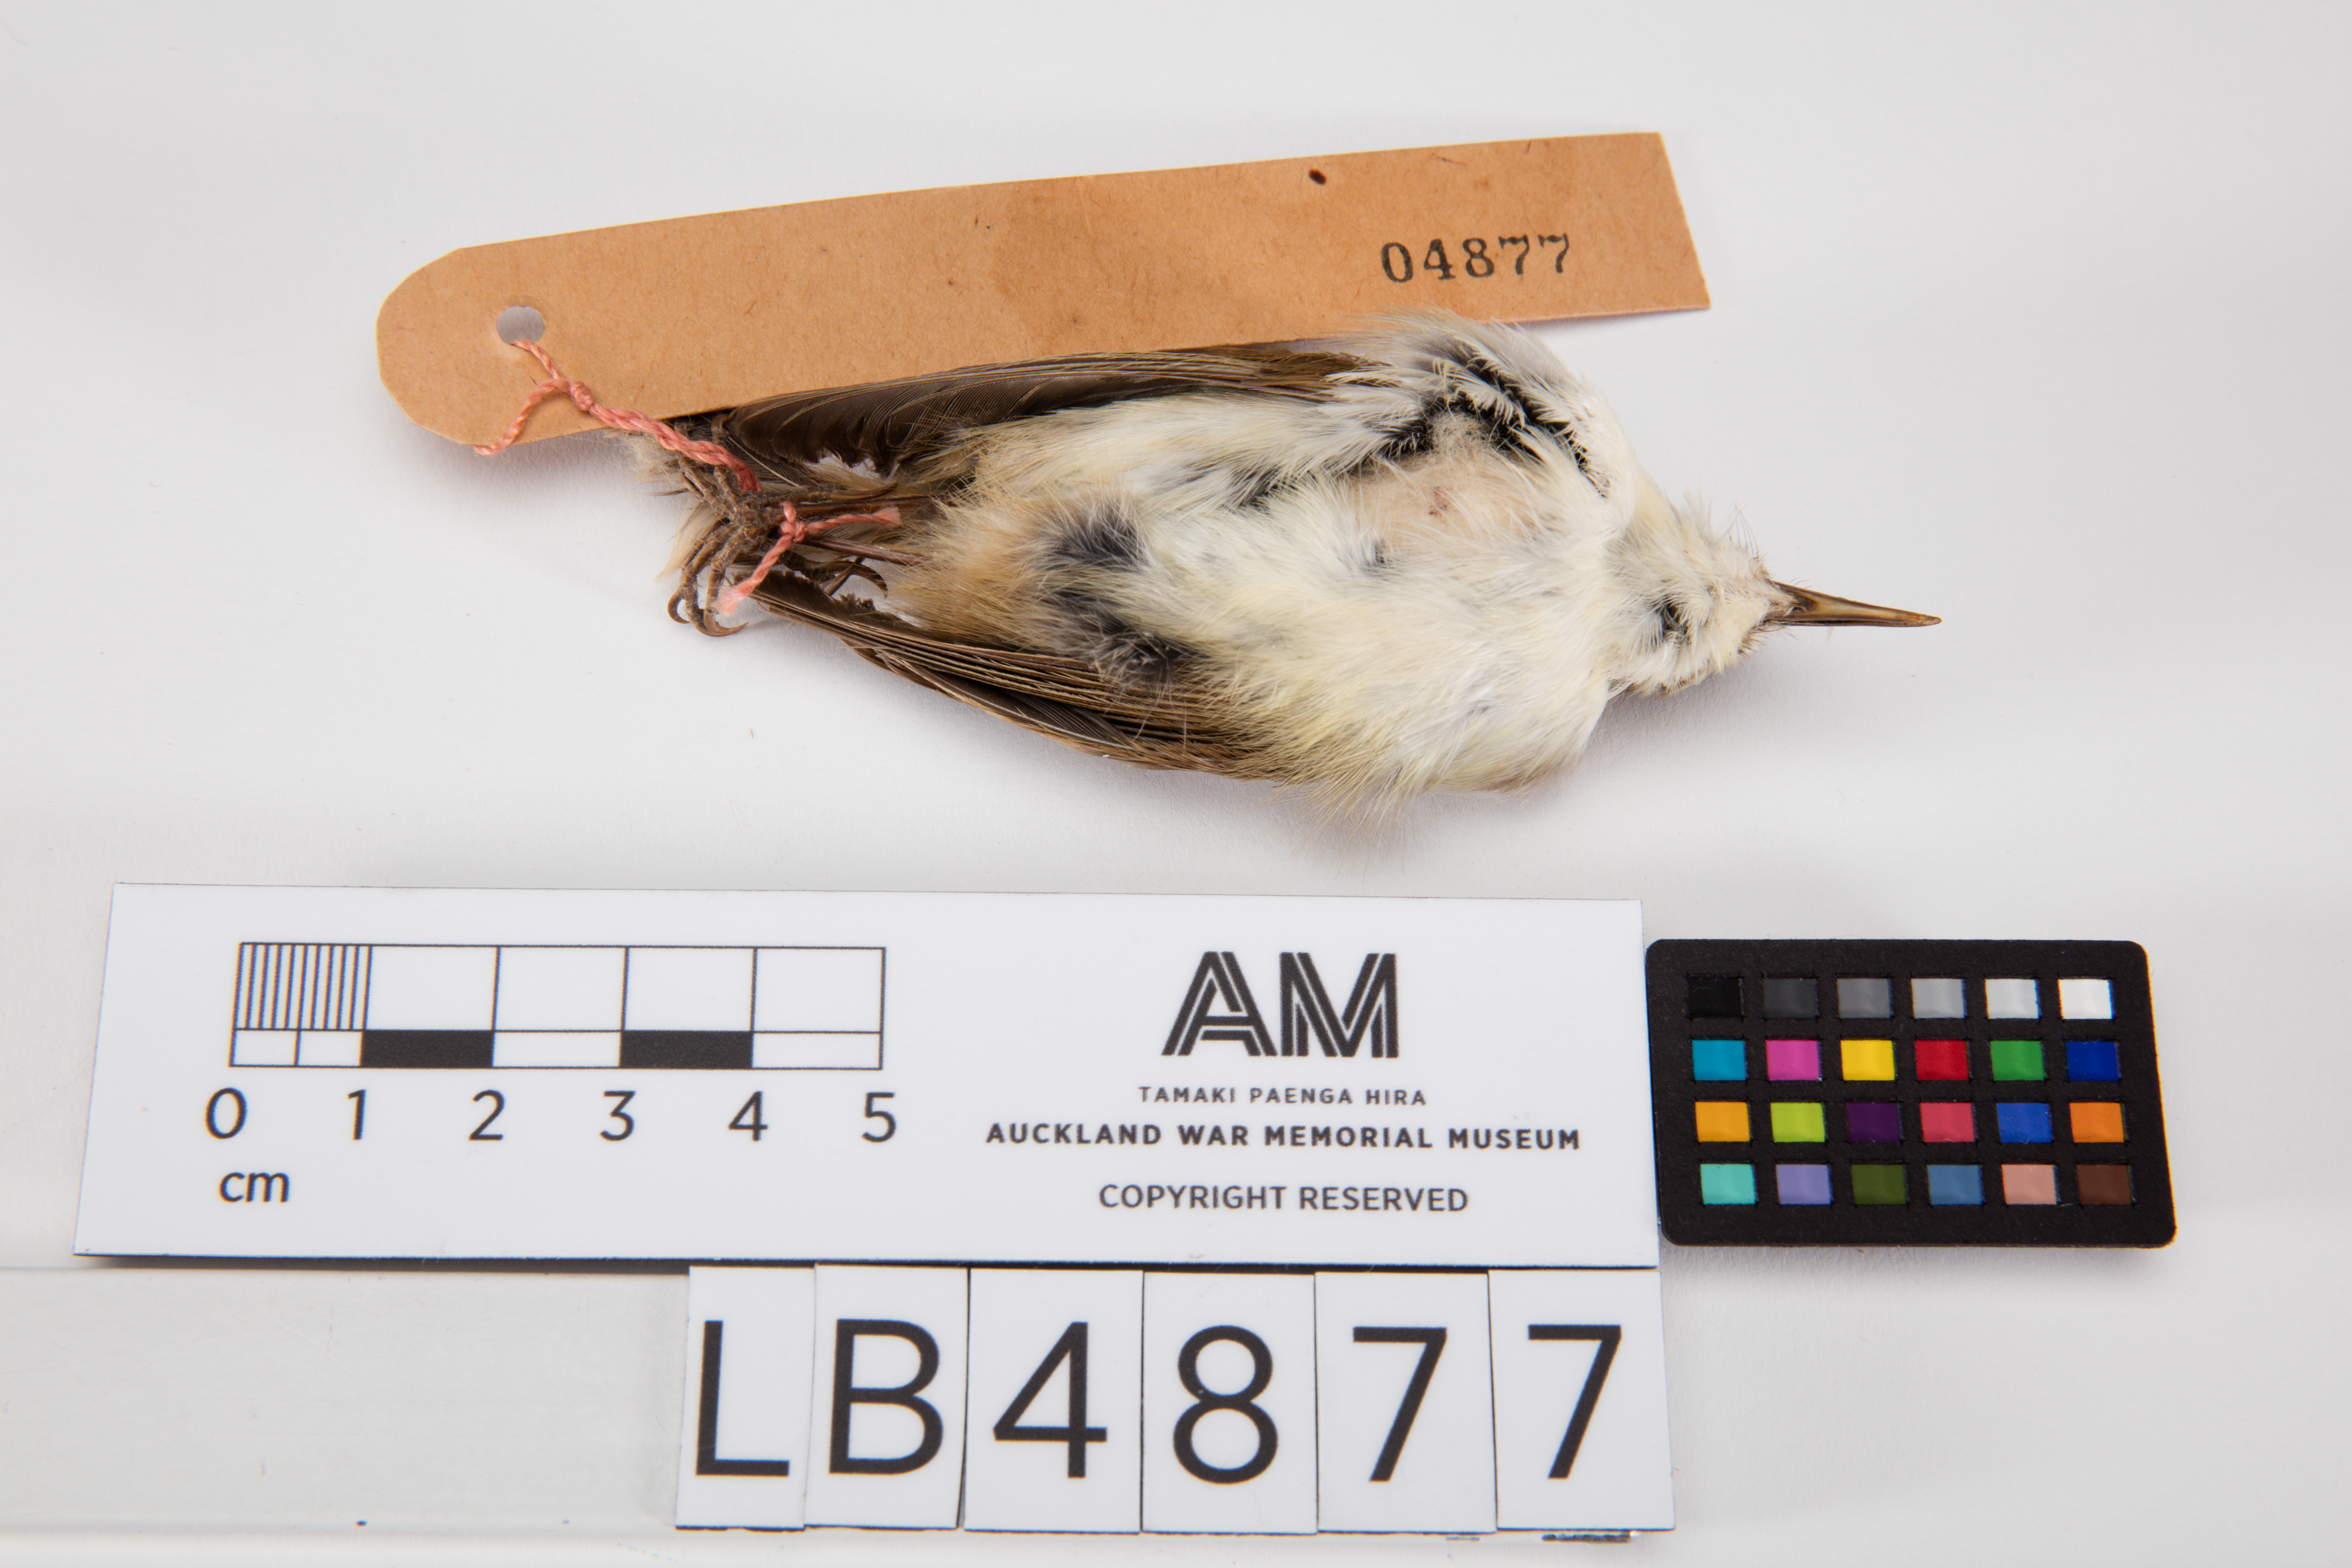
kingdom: Animalia
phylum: Chordata
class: Aves
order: Passeriformes
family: Acanthizidae
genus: Gerygone
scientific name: Gerygone albofrontata
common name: Chatham gerygone
